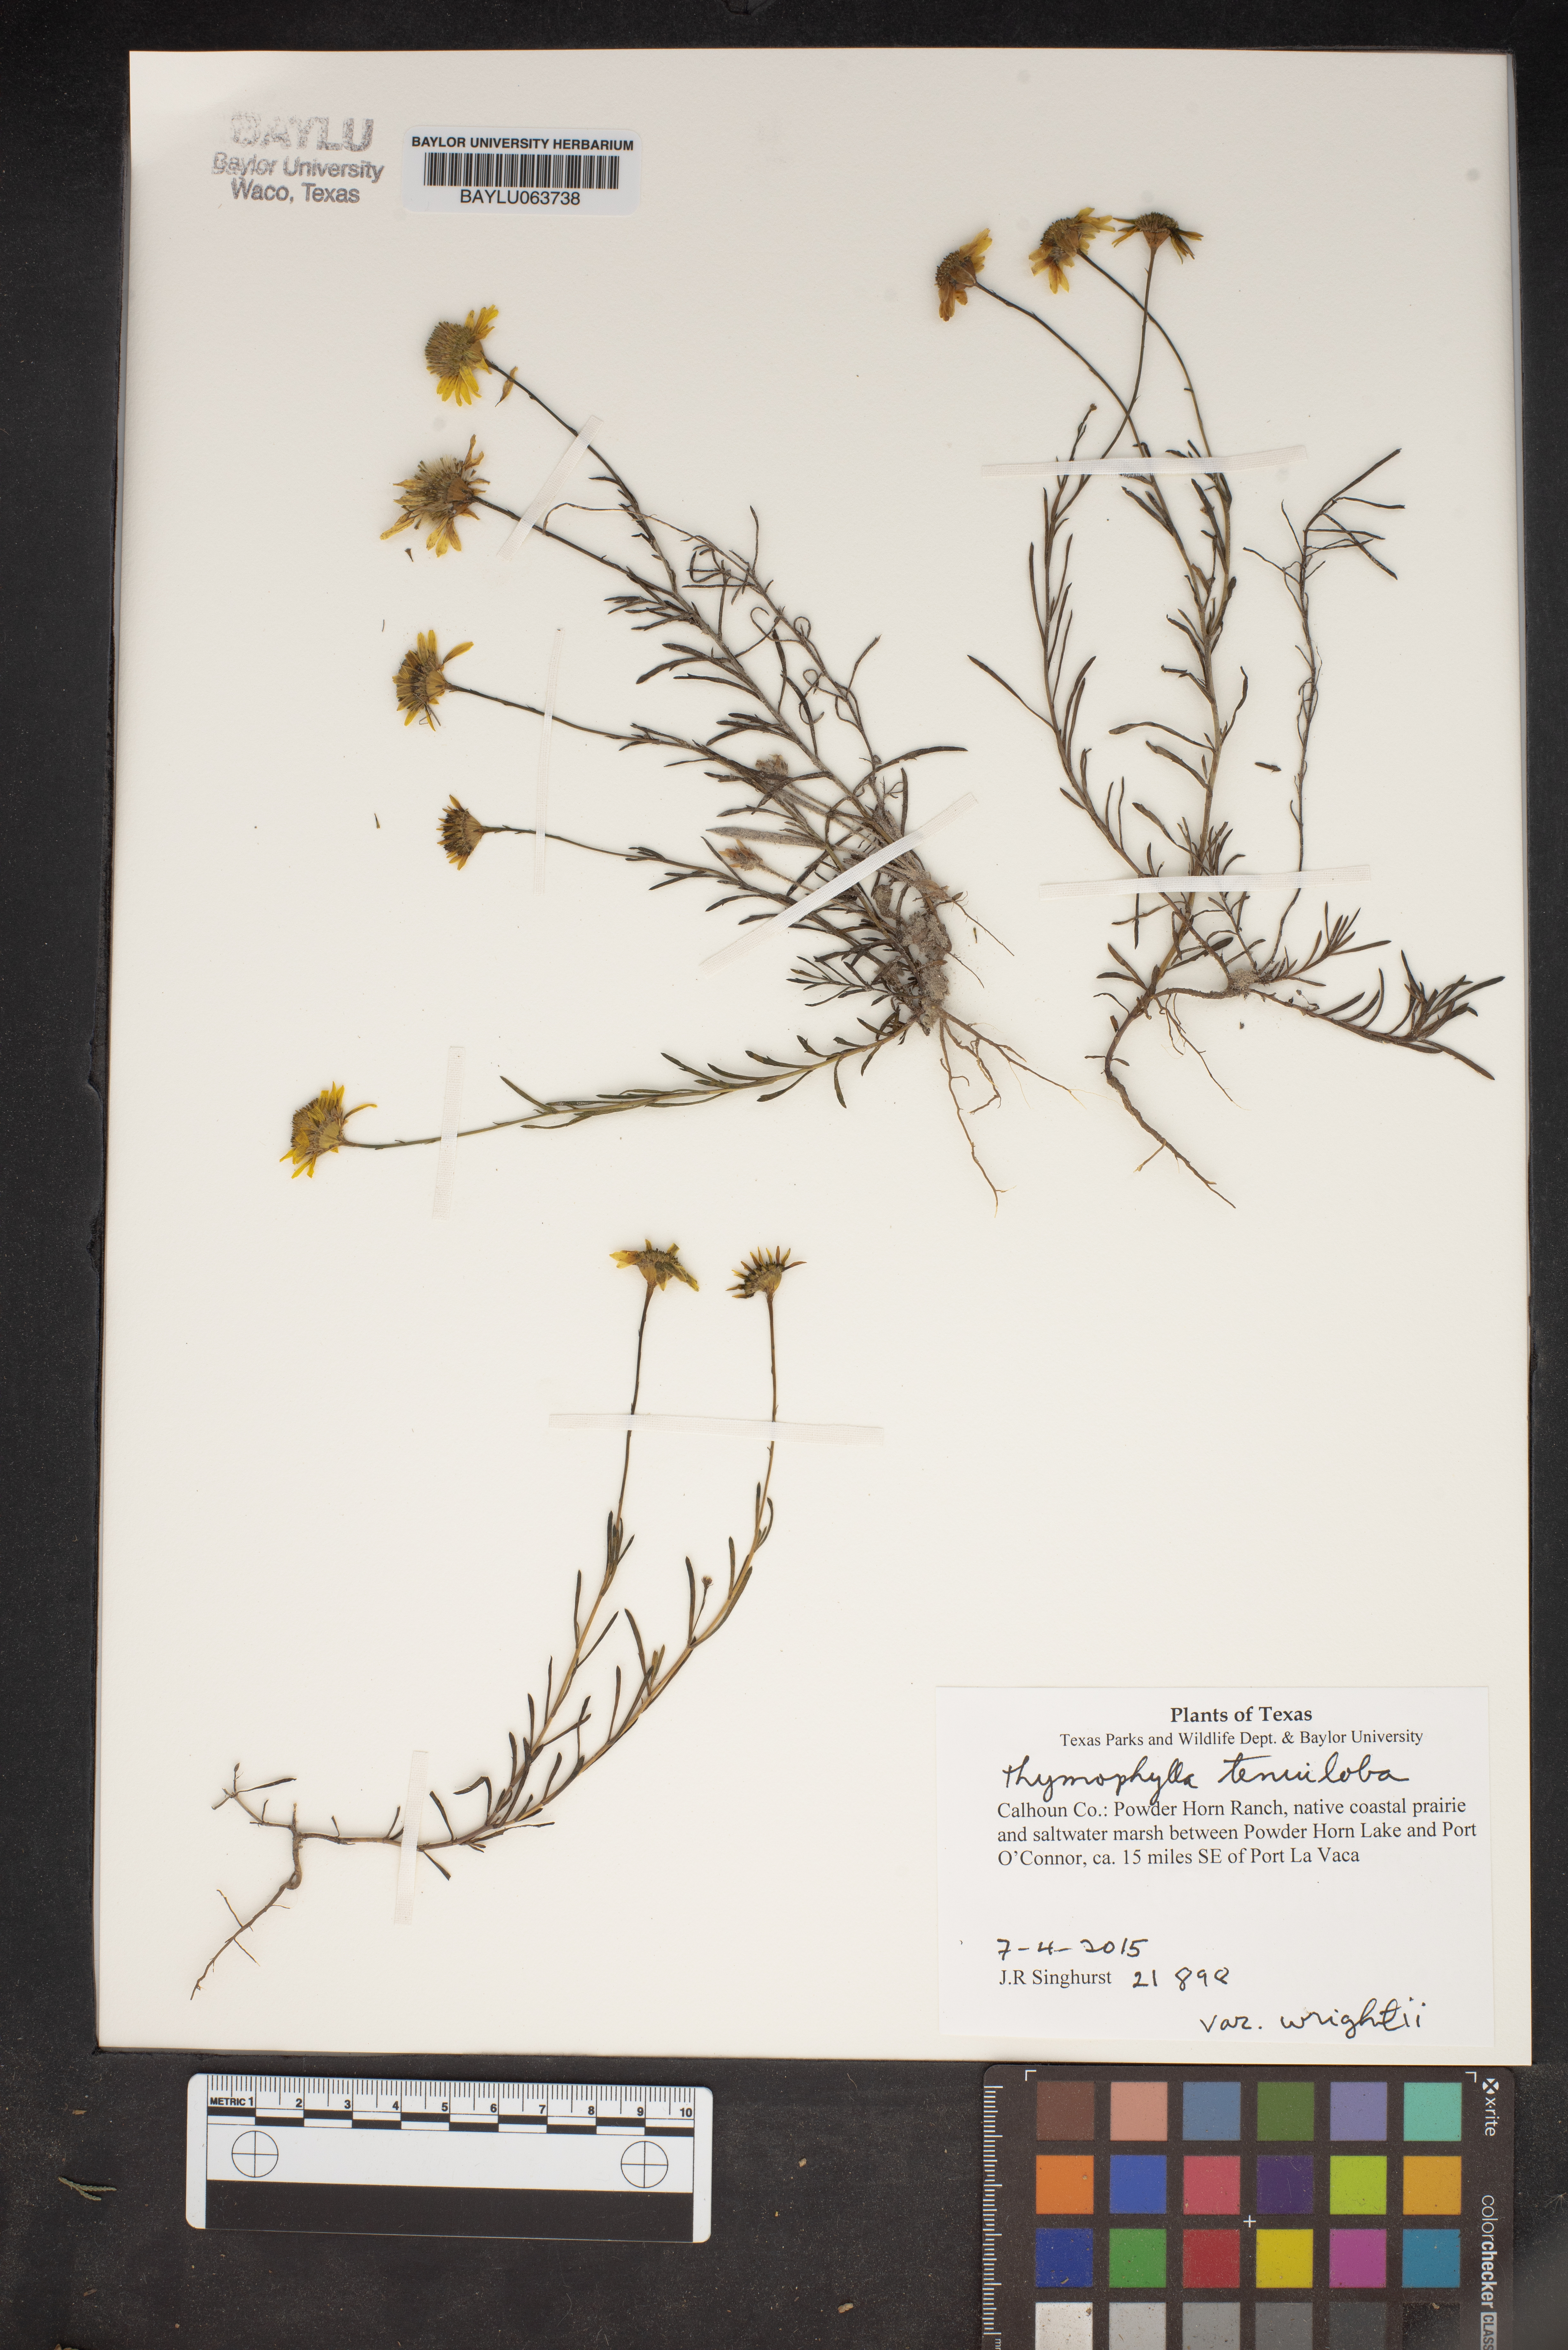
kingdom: Plantae
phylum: Tracheophyta
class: Magnoliopsida
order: Asterales
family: Asteraceae
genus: Thymophylla
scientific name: Thymophylla tenuiloba
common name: Dahlberg's daisy
